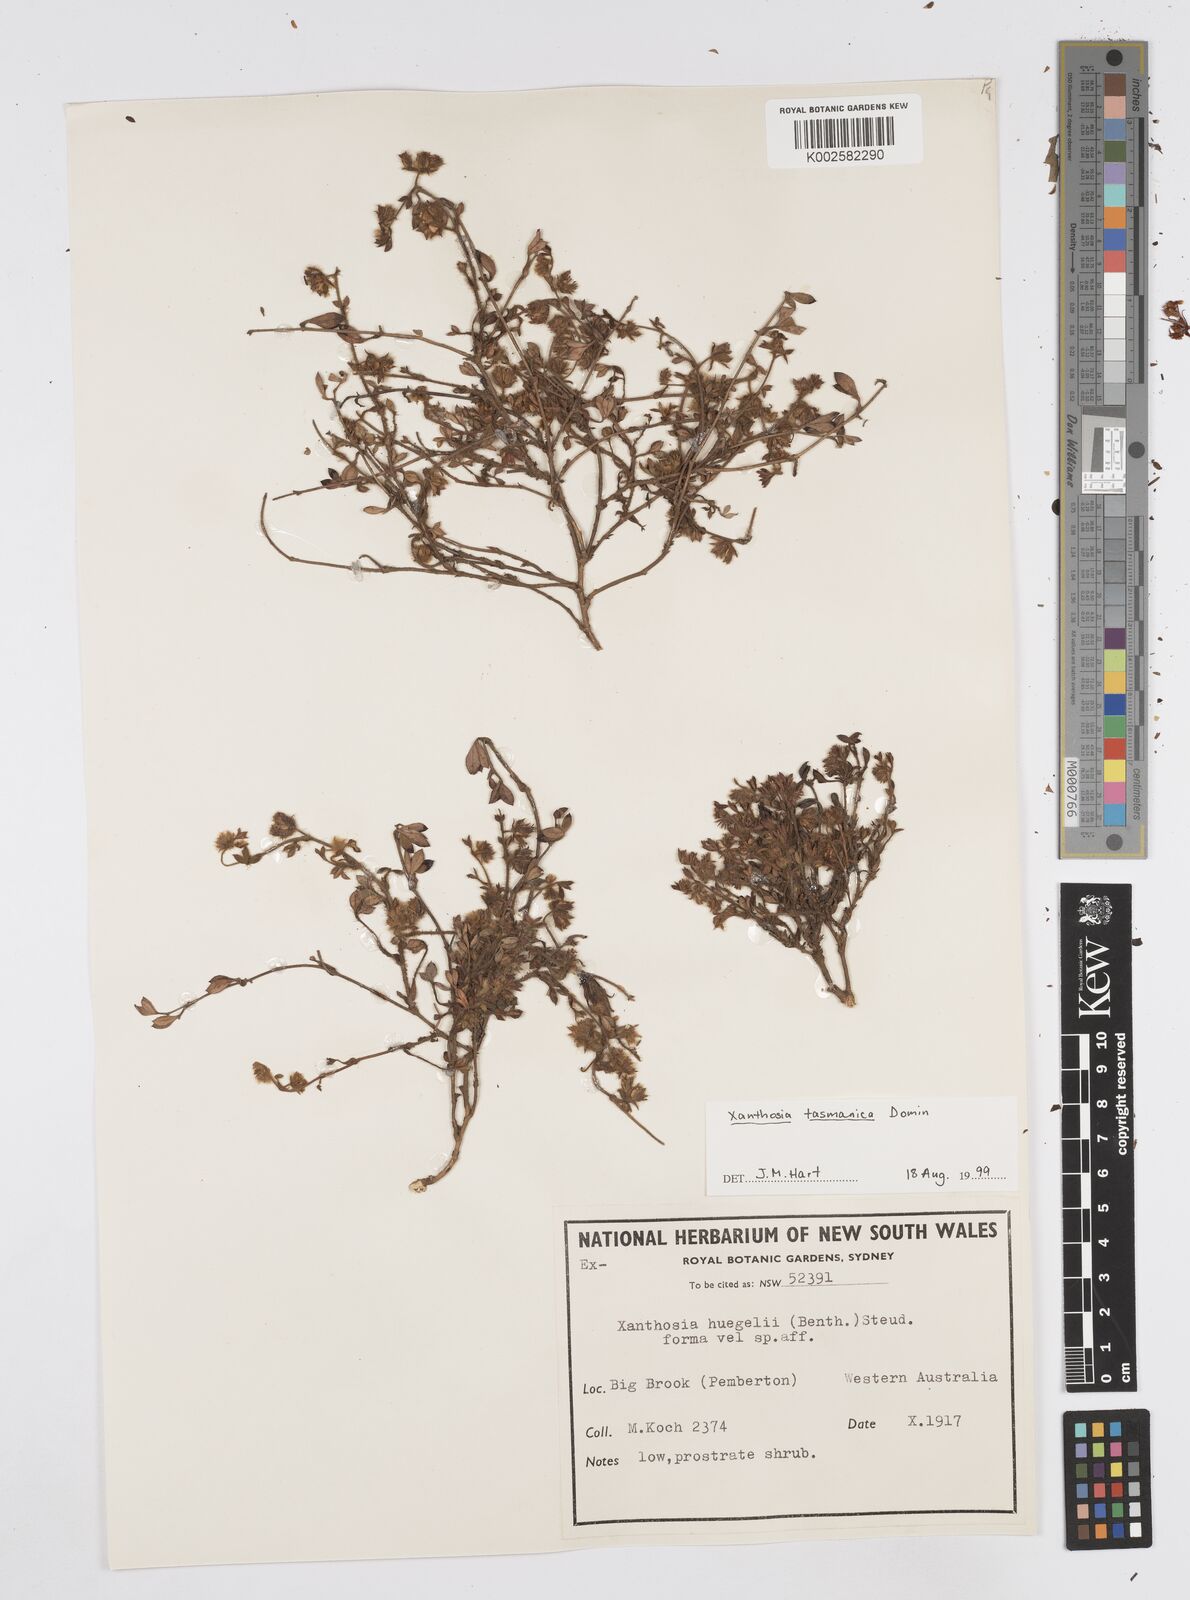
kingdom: Plantae
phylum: Tracheophyta
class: Magnoliopsida
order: Apiales
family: Apiaceae
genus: Xanthosia
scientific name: Xanthosia tasmanica
